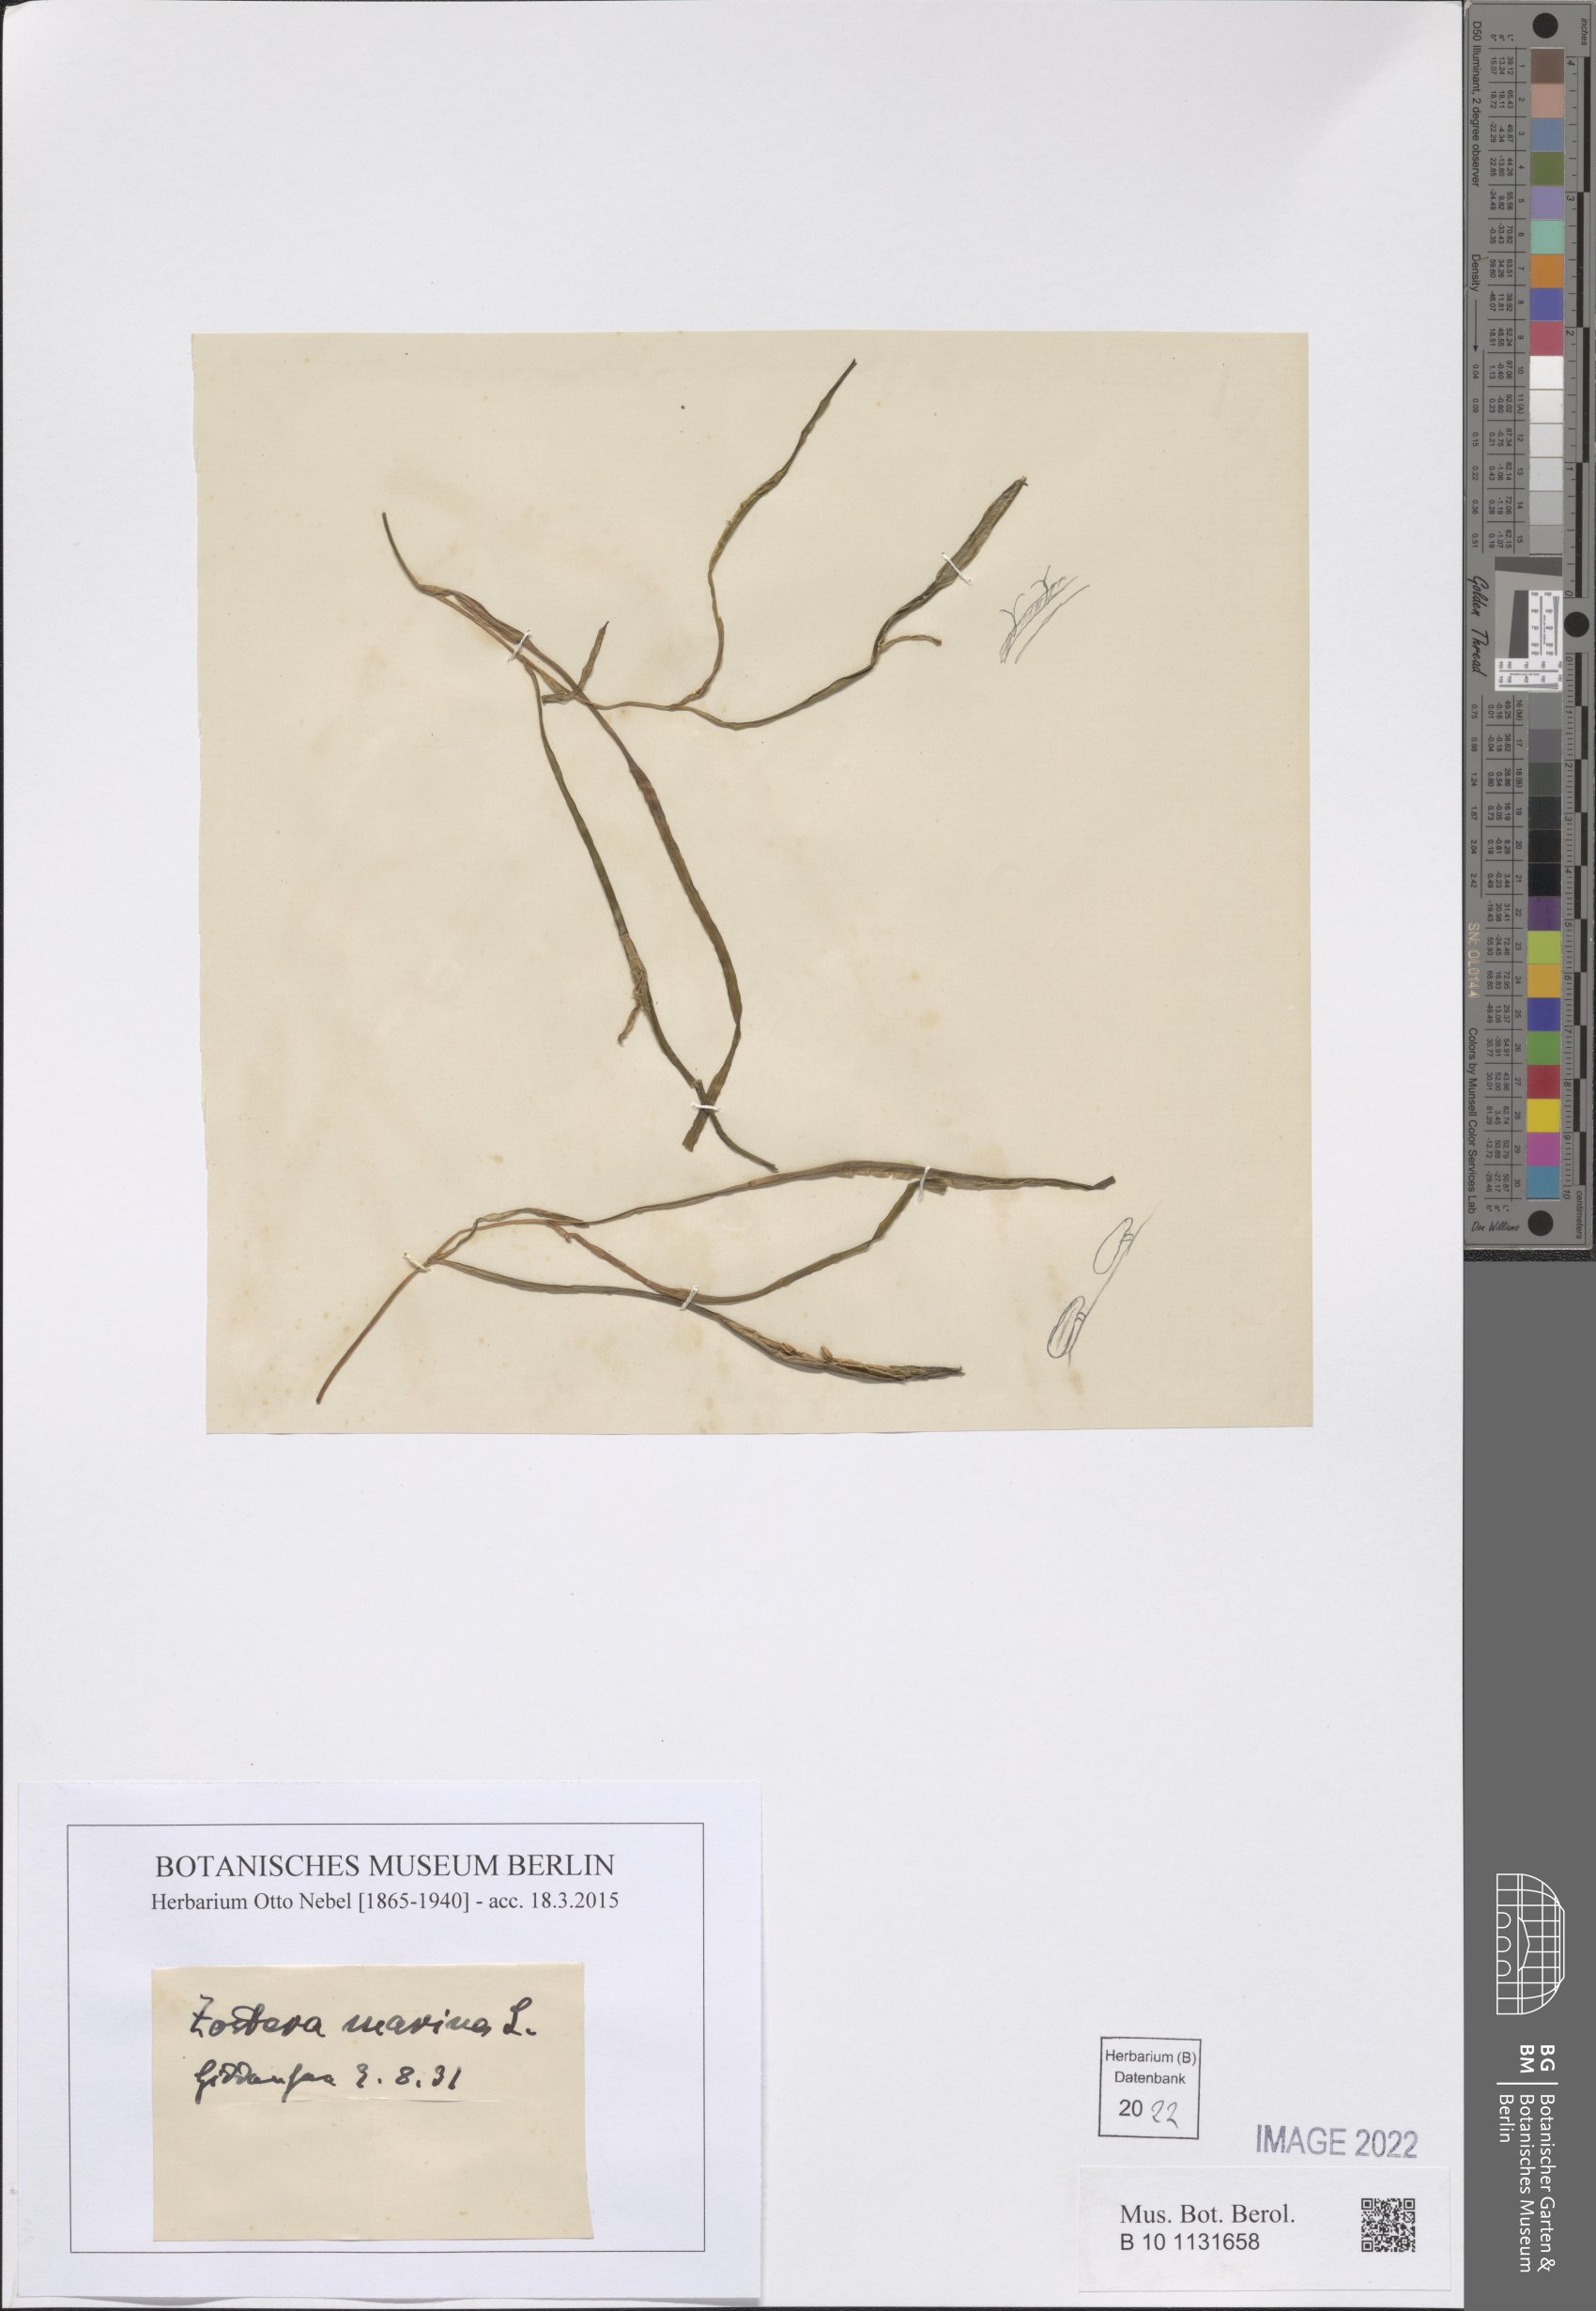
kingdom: Plantae
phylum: Tracheophyta
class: Liliopsida
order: Alismatales
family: Zosteraceae
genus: Zostera
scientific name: Zostera marina
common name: Eelgrass
